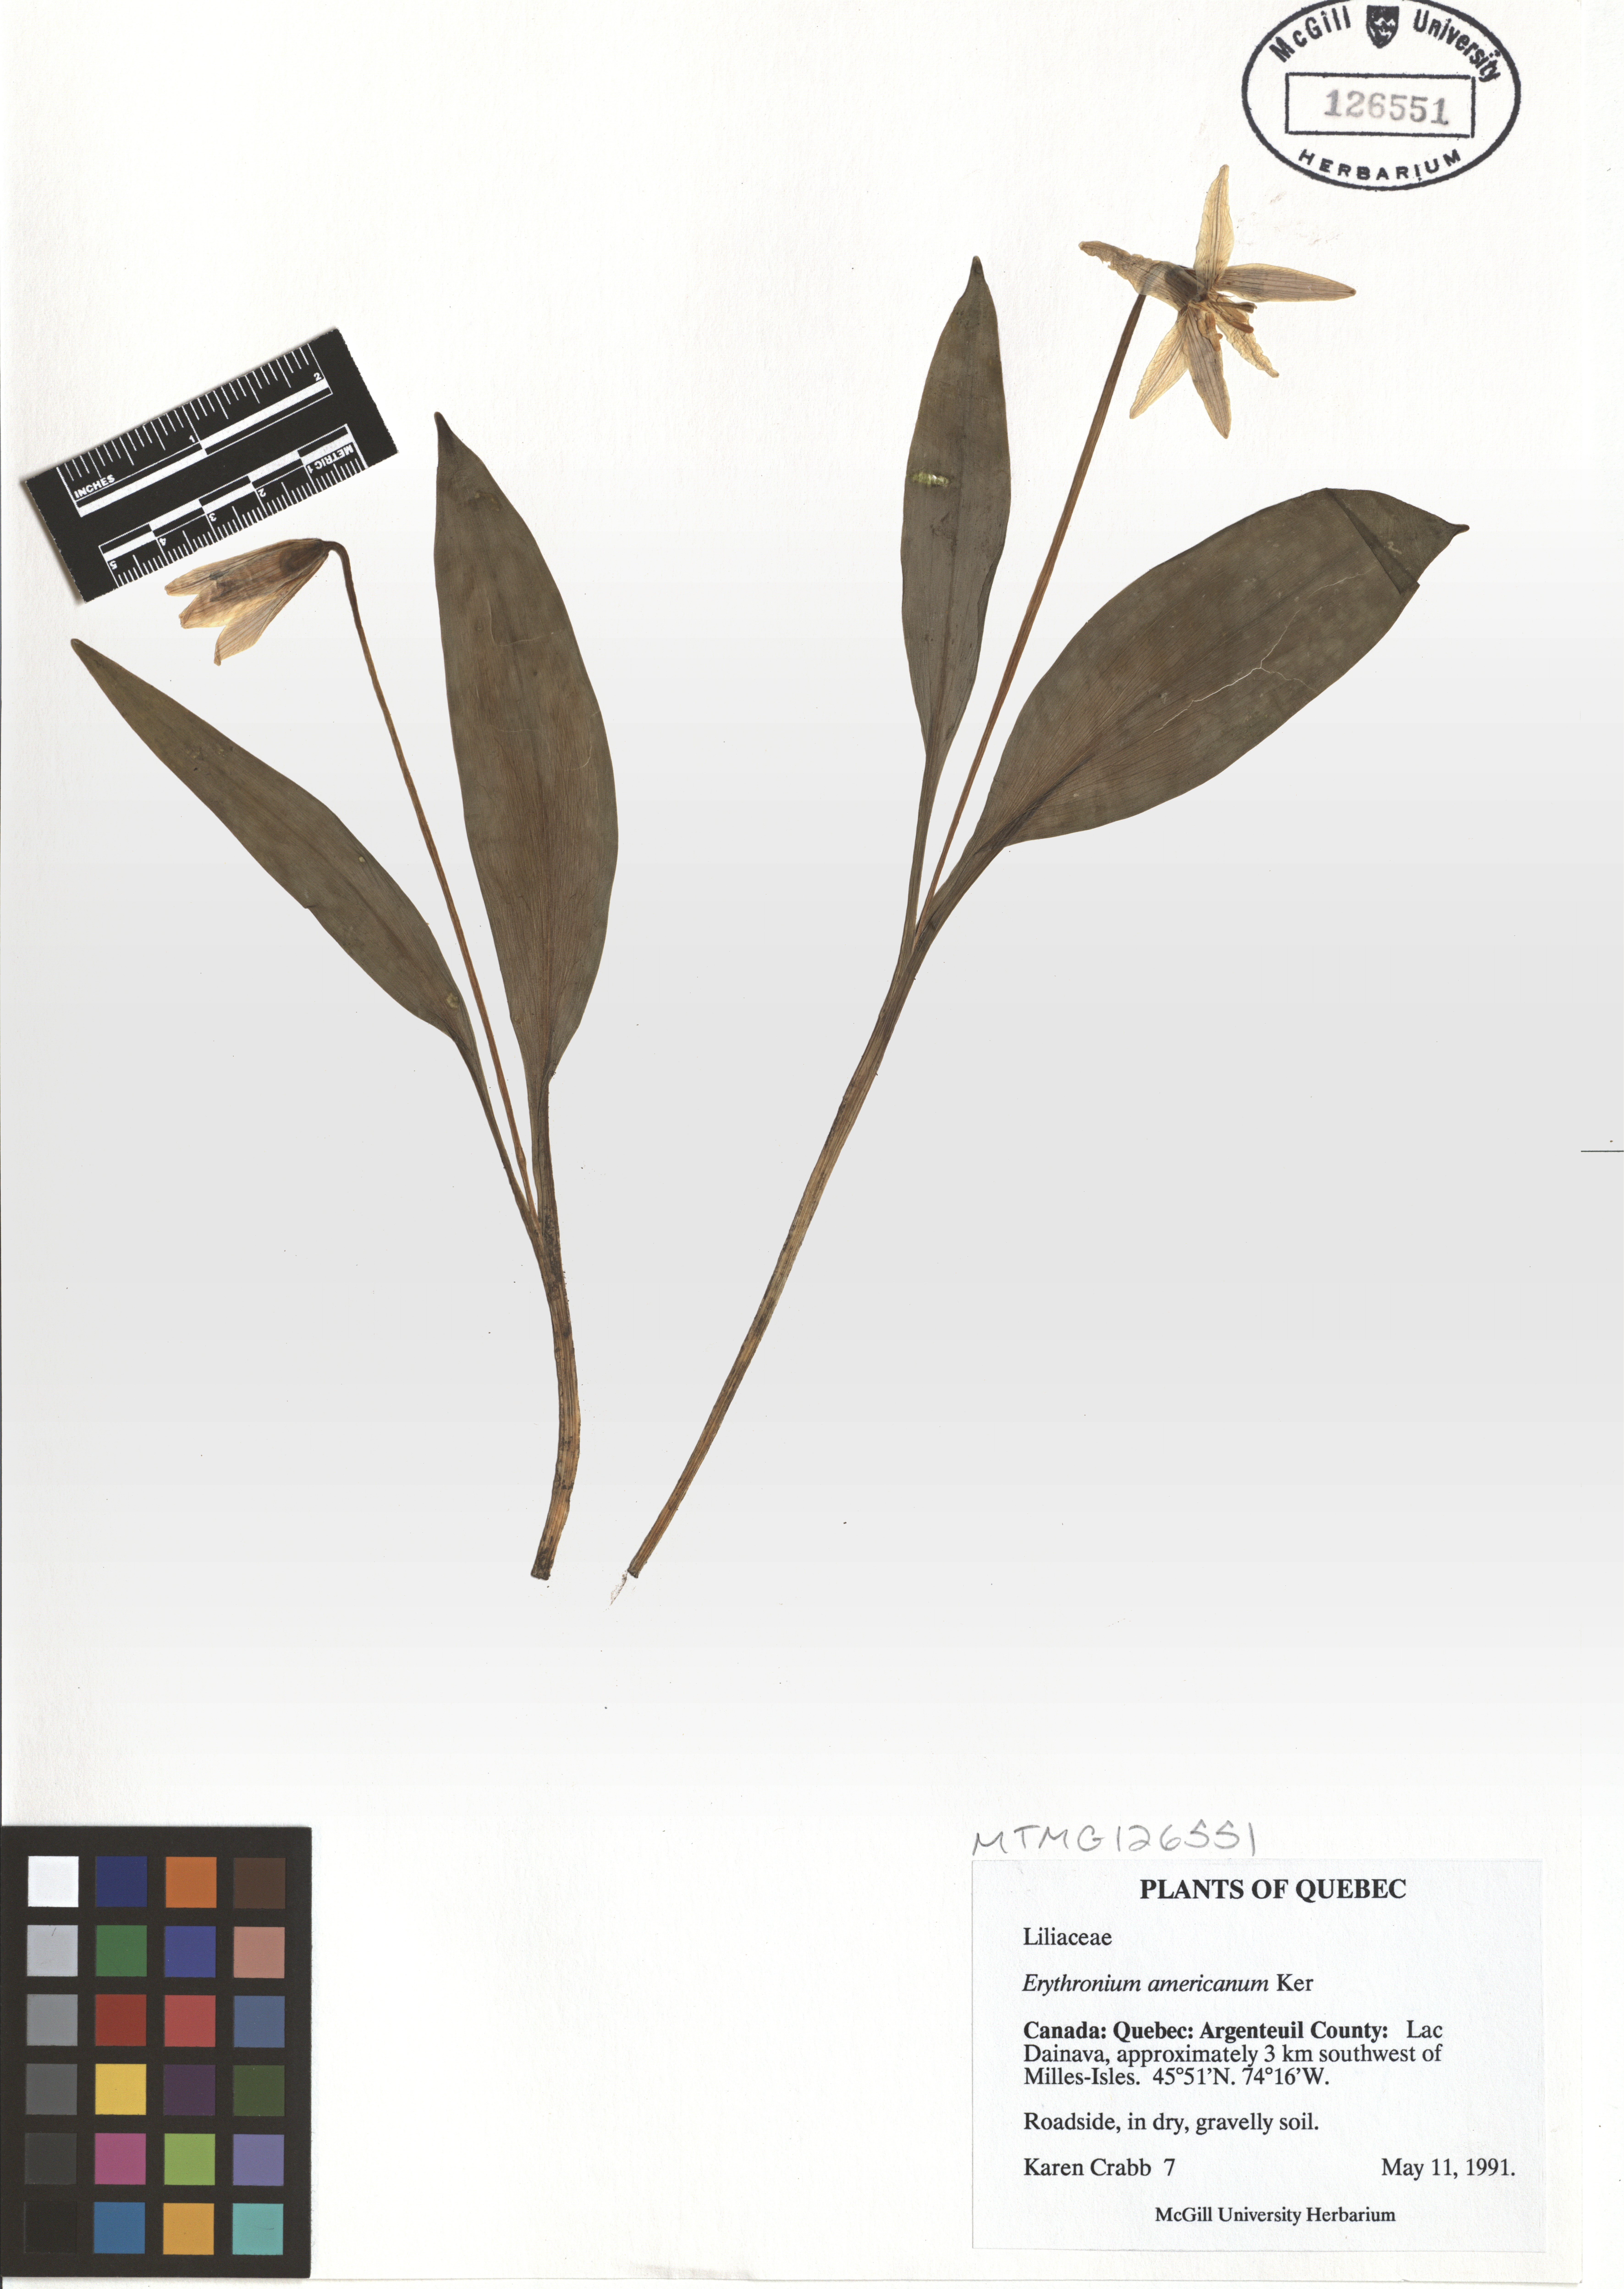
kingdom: Plantae
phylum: Tracheophyta
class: Liliopsida
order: Liliales
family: Liliaceae
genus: Erythronium
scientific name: Erythronium americanum
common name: Yellow adder's-tongue
